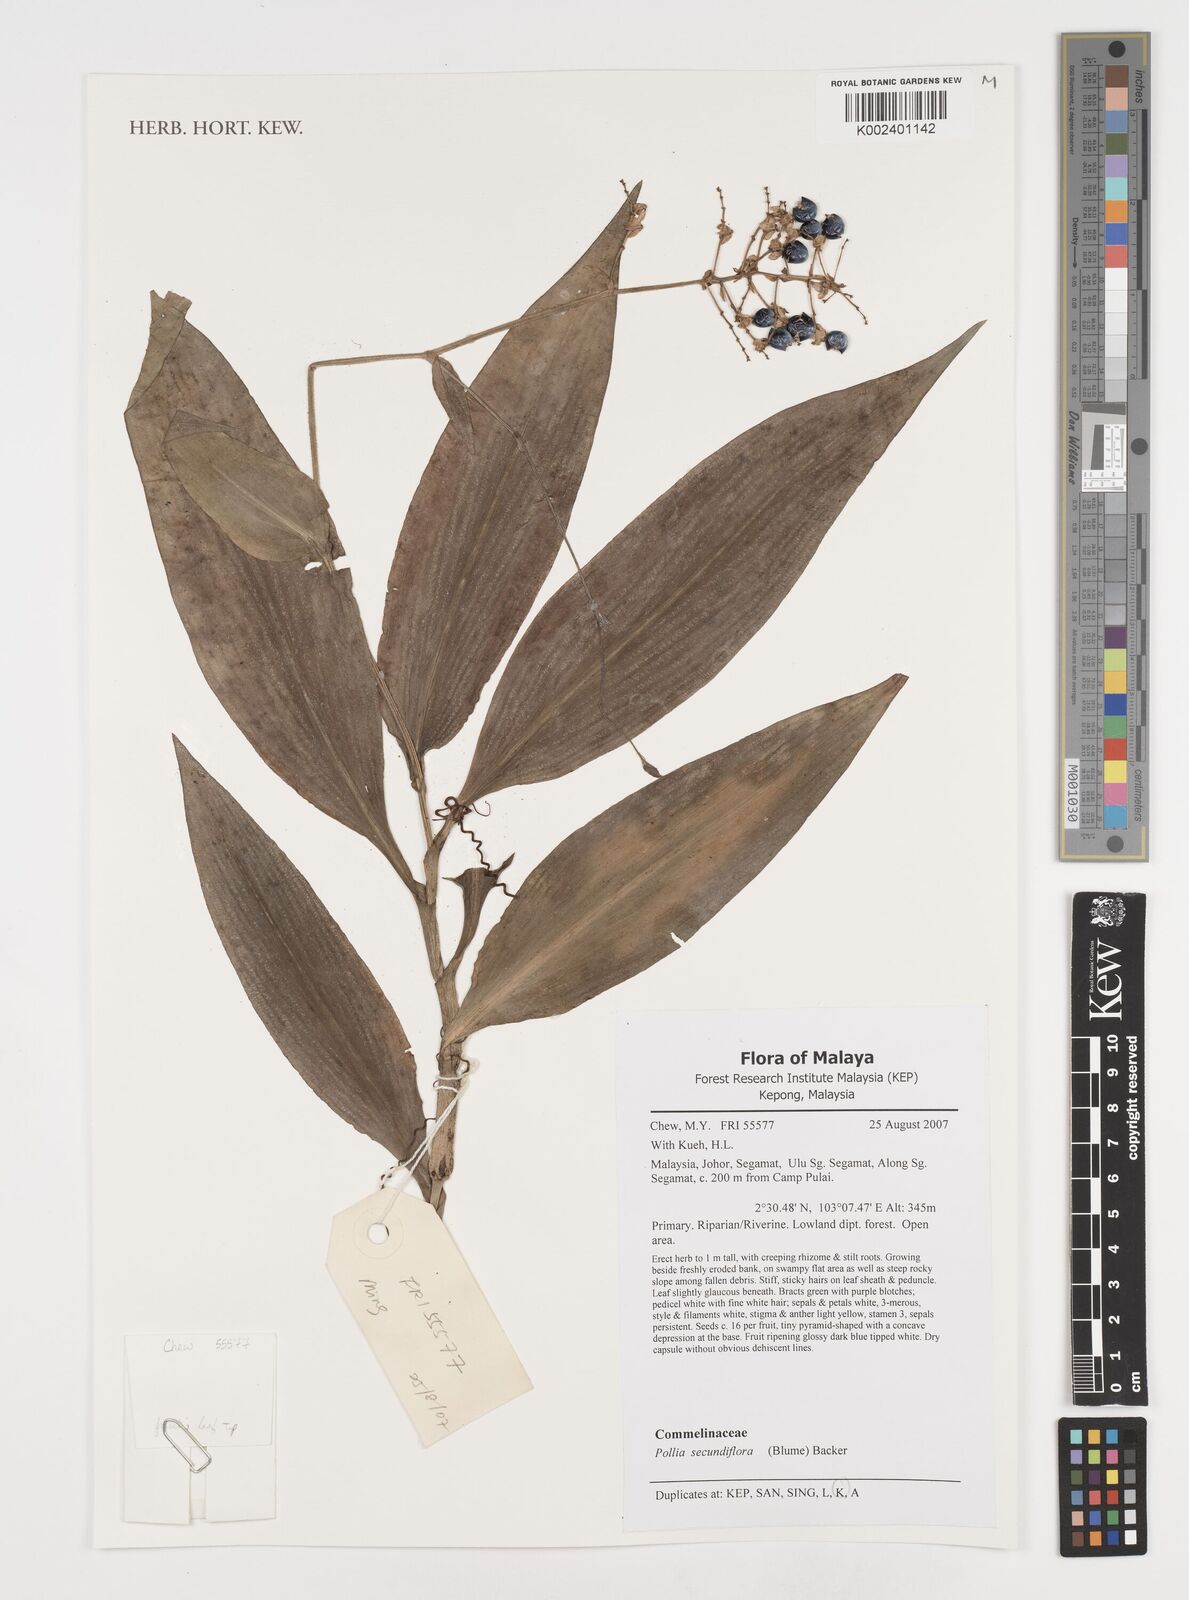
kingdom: Plantae
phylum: Tracheophyta
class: Liliopsida
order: Commelinales
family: Commelinaceae
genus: Pollia
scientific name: Pollia secundiflora
